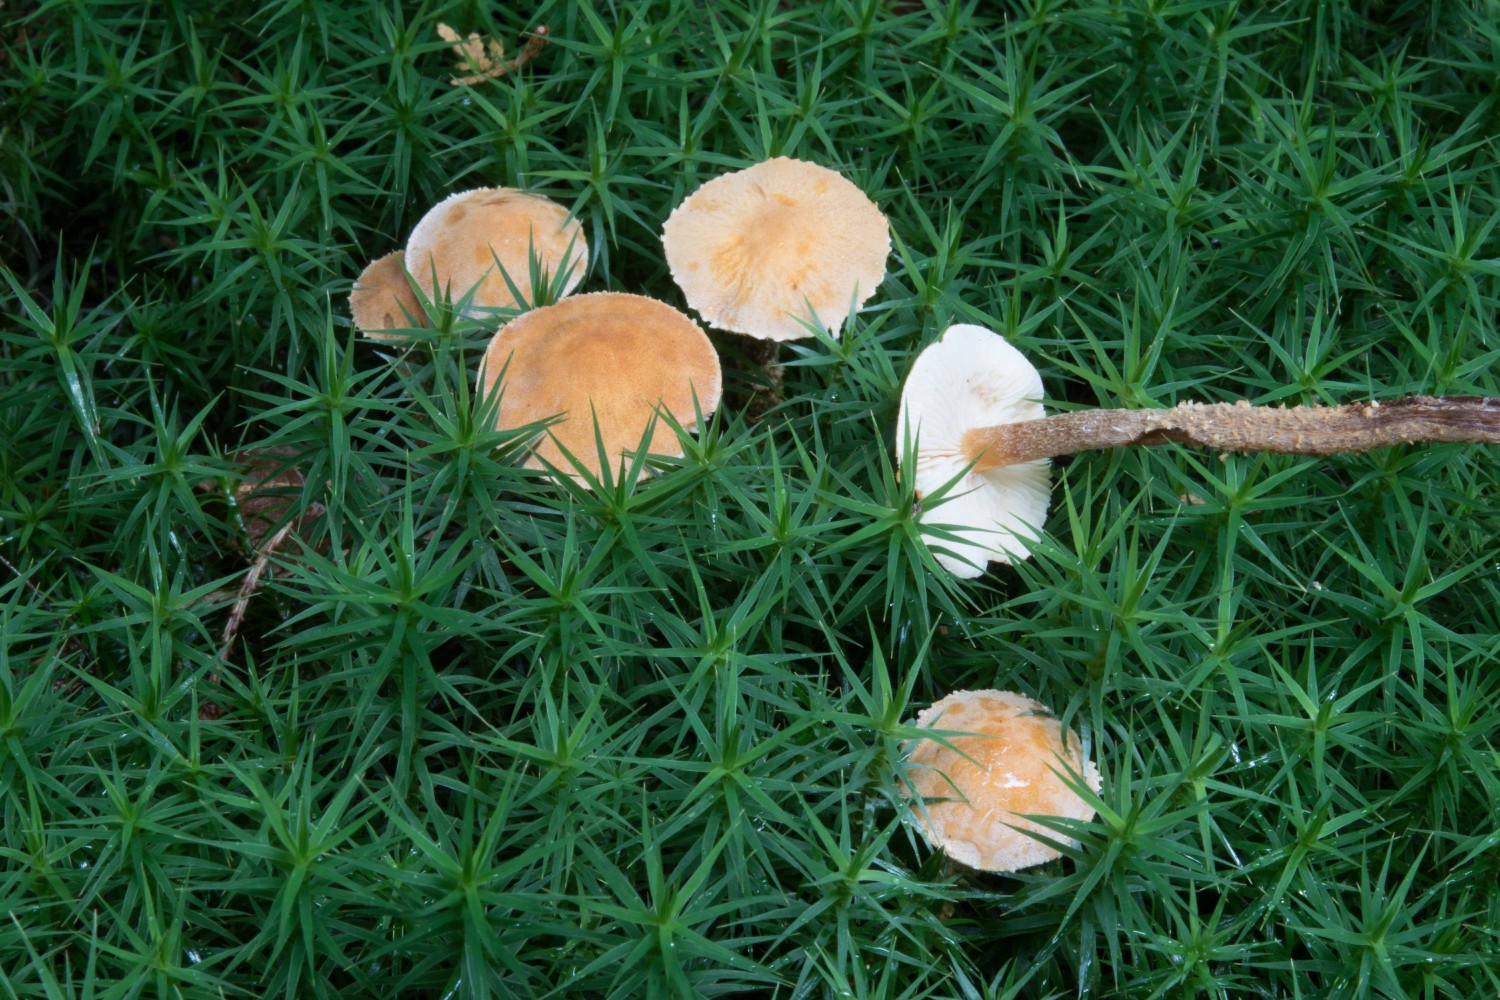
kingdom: Fungi
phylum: Basidiomycota
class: Agaricomycetes
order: Agaricales
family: Tricholomataceae
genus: Cystoderma
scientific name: Cystoderma amianthinum
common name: okkergul grynhat
